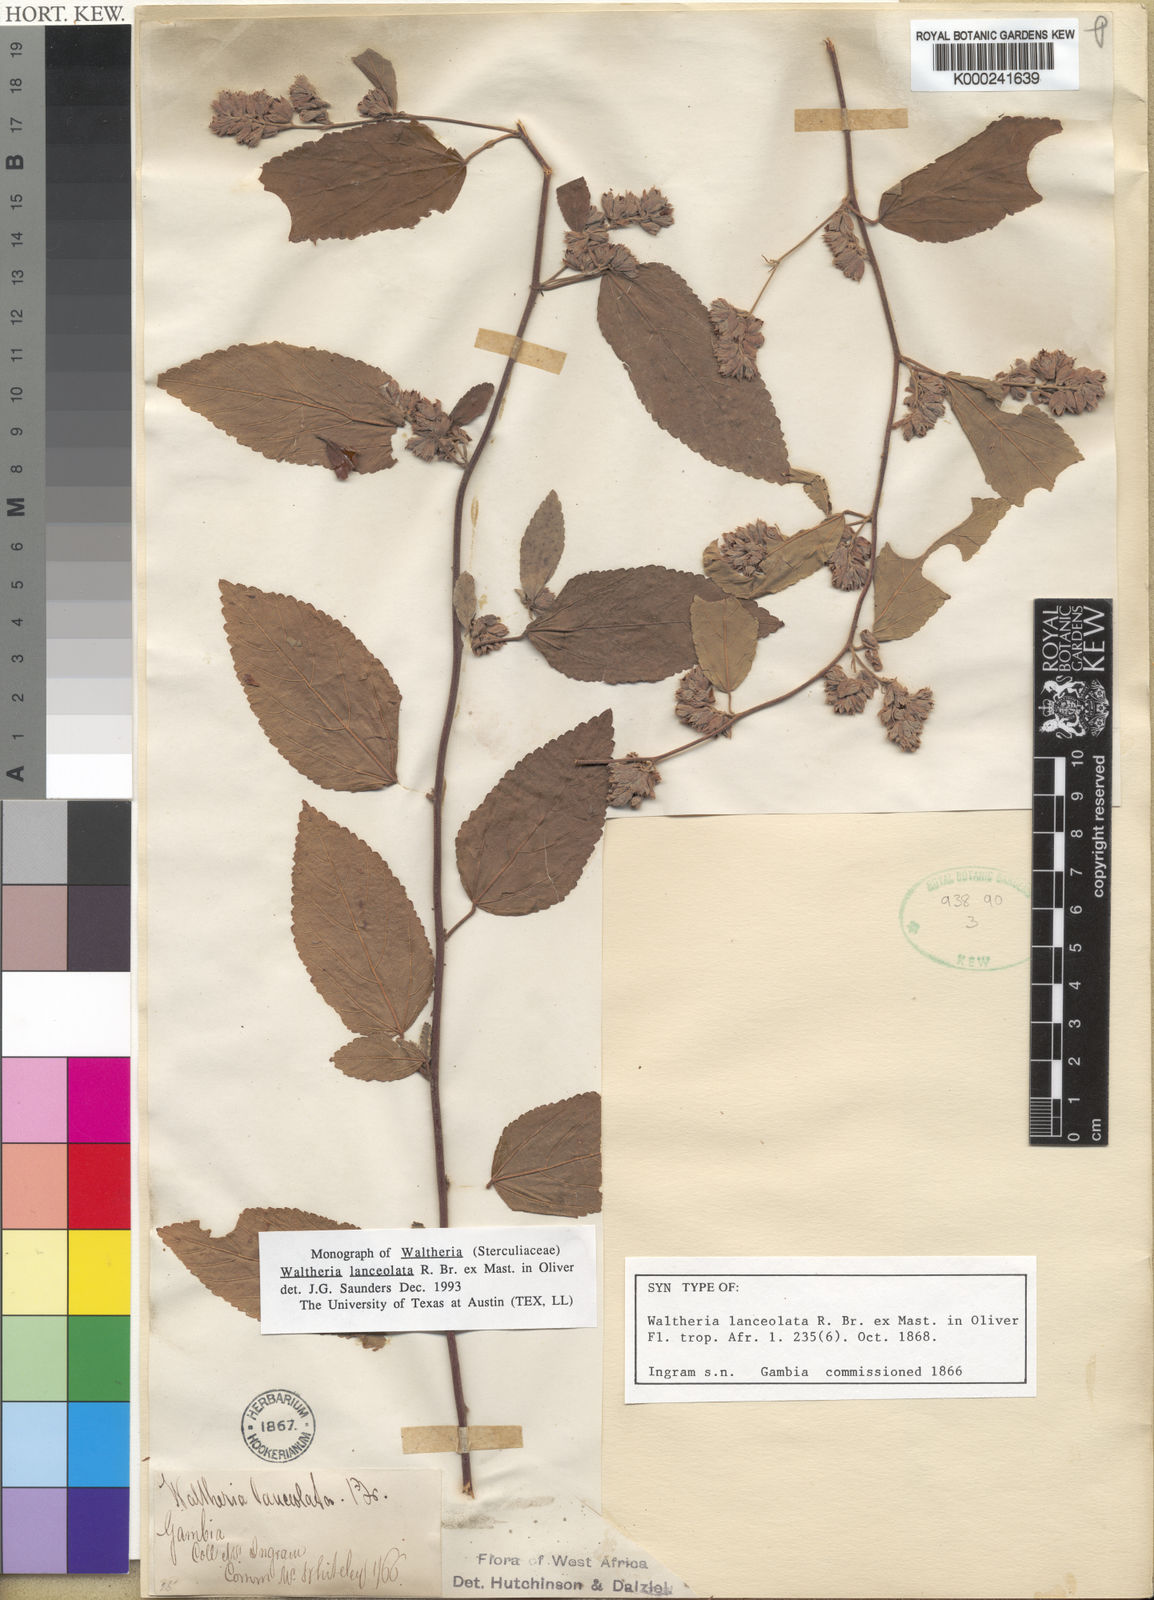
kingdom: Plantae
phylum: Tracheophyta
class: Magnoliopsida
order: Malvales
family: Malvaceae
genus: Waltheria
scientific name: Waltheria lanceolata
